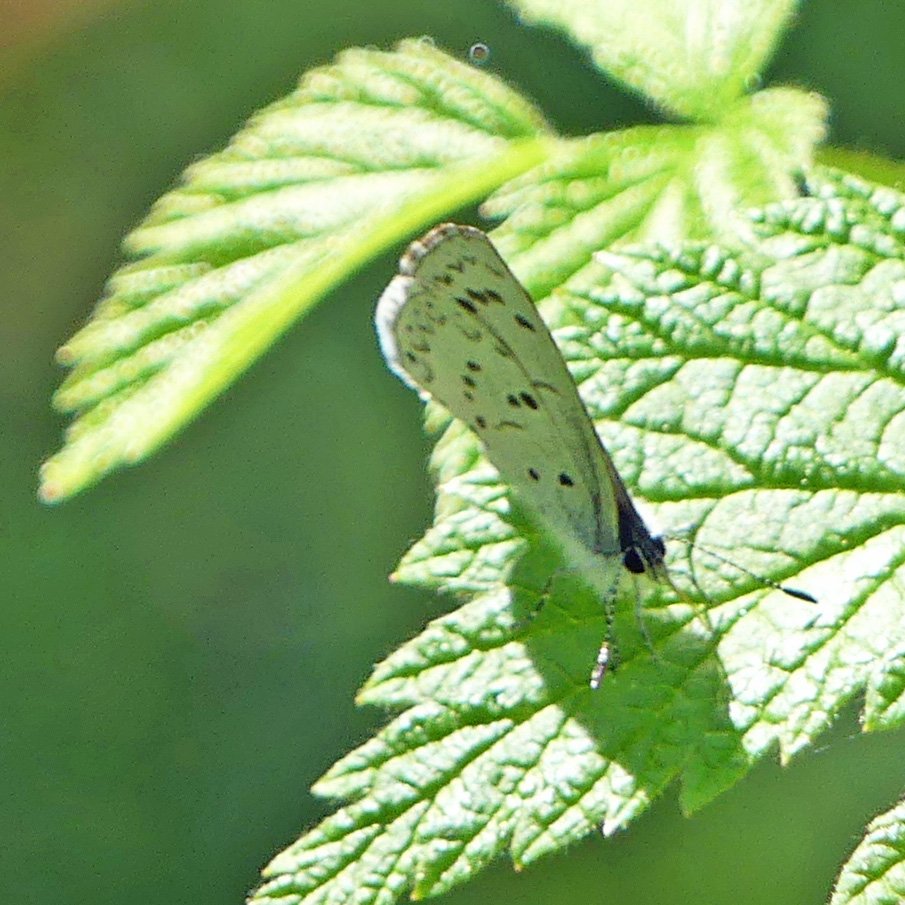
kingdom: Animalia
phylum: Arthropoda
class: Insecta
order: Lepidoptera
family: Lycaenidae
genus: Celastrina
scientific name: Celastrina
